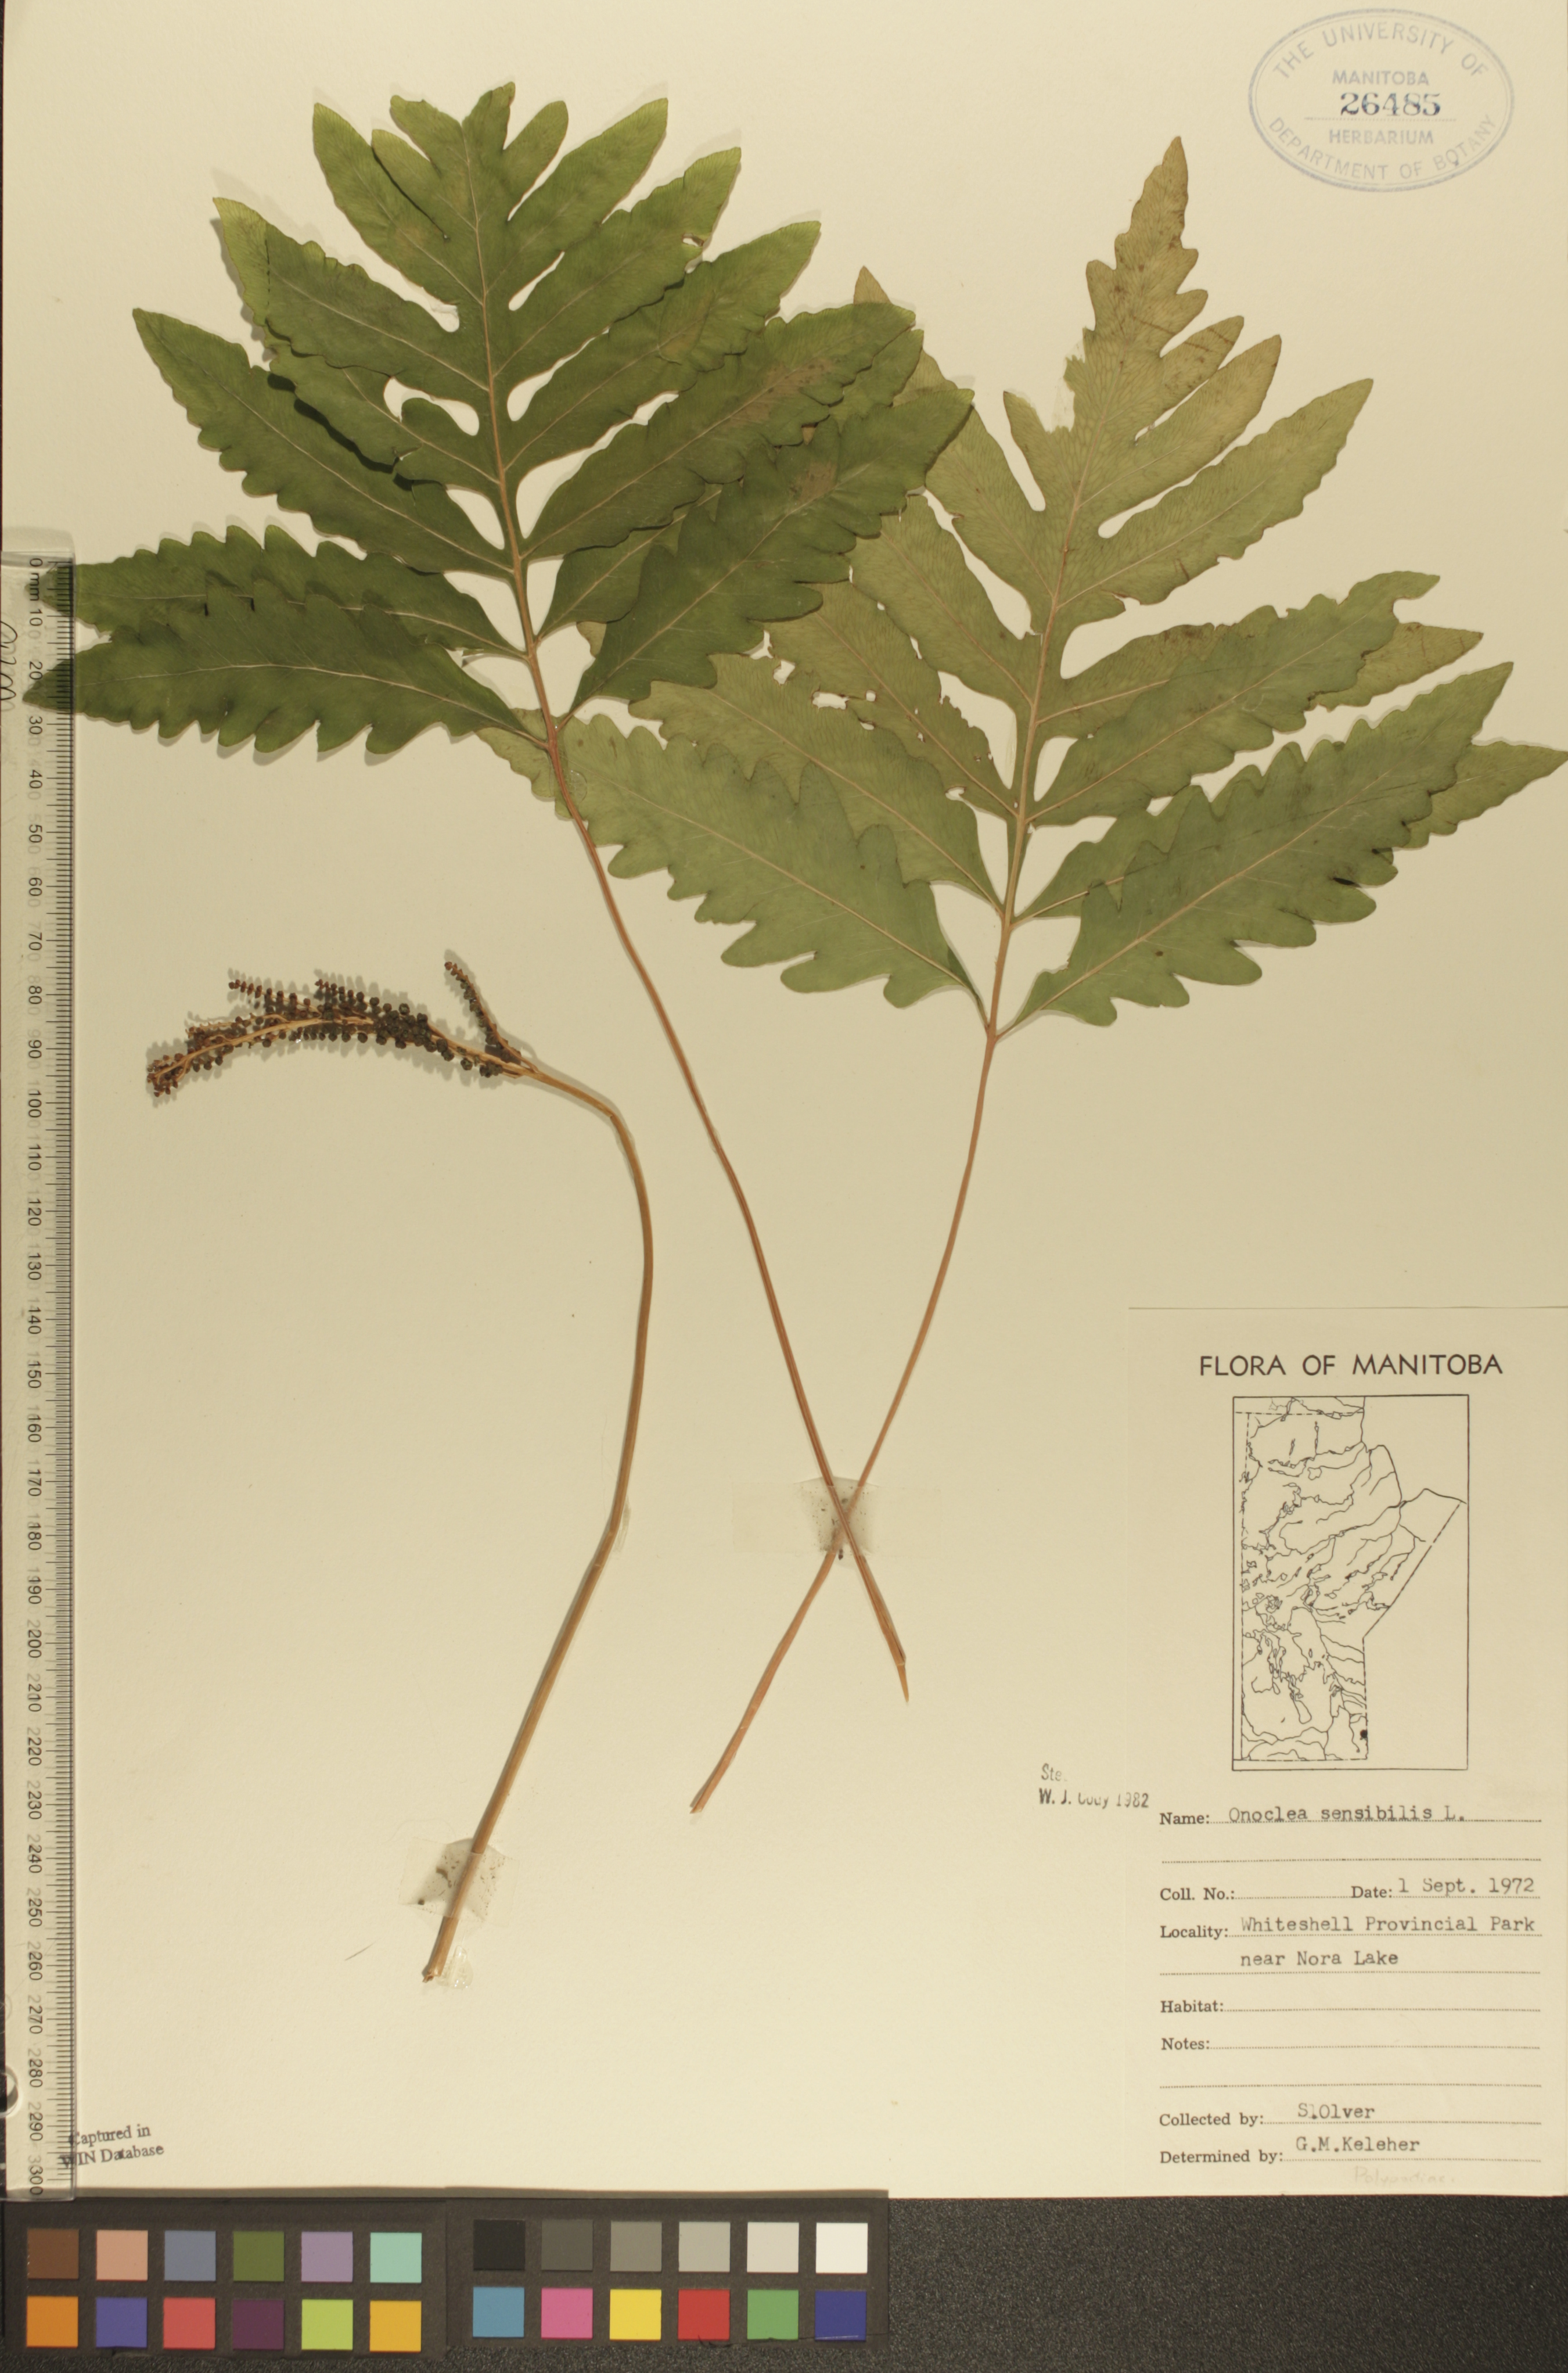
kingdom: Plantae
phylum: Tracheophyta
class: Polypodiopsida
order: Polypodiales
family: Onocleaceae
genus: Onoclea
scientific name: Onoclea sensibilis
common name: Sensitive fern
